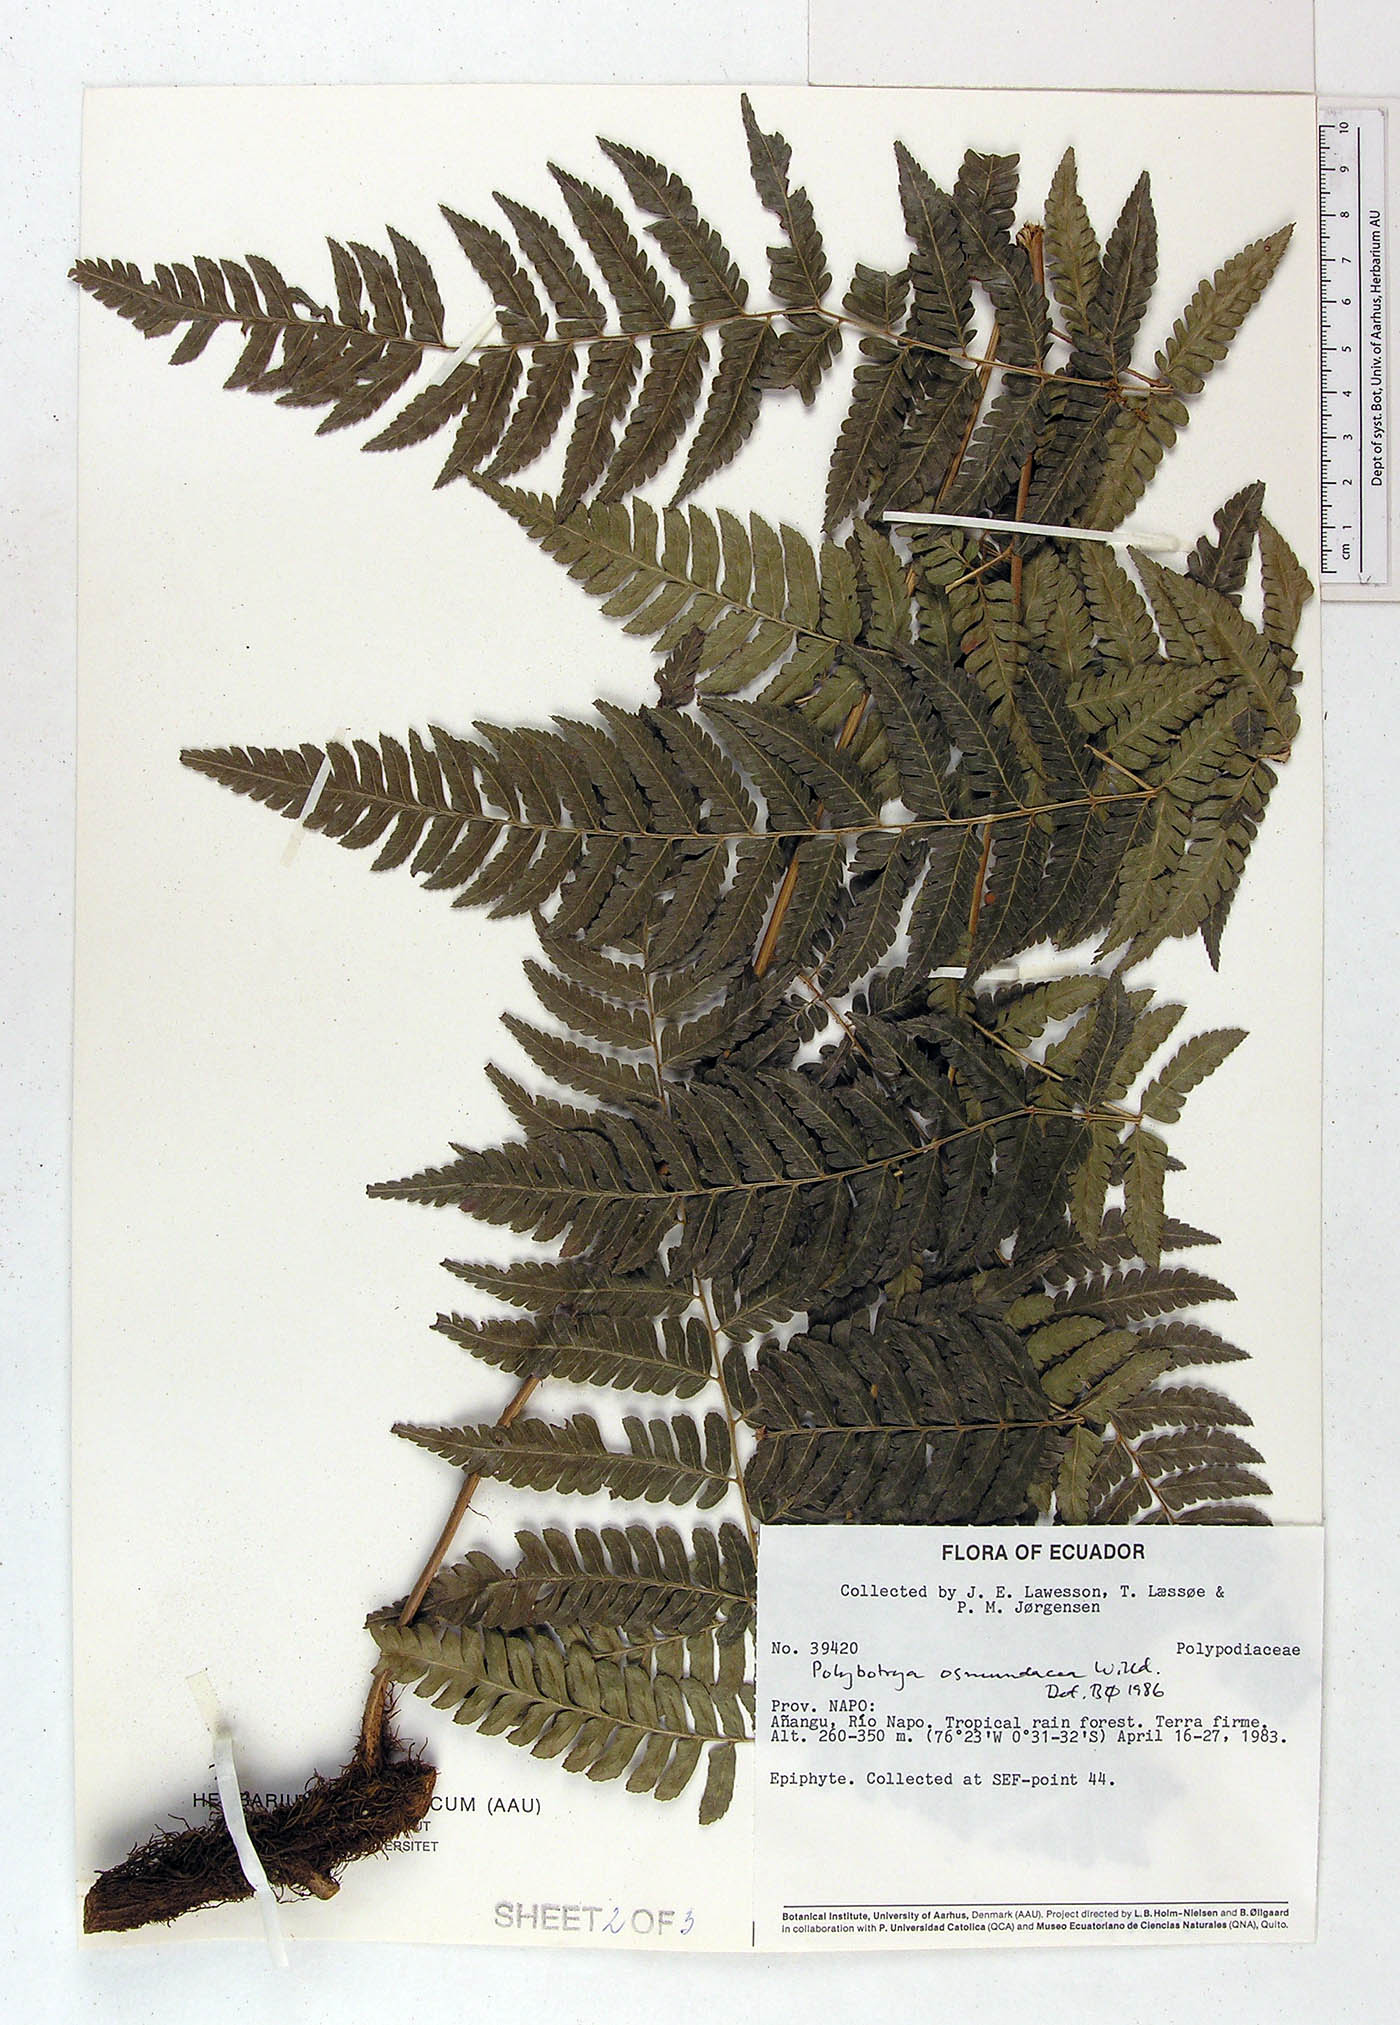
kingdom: Plantae
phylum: Tracheophyta
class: Polypodiopsida
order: Polypodiales
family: Dryopteridaceae
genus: Polybotrya
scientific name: Polybotrya osmundacea
